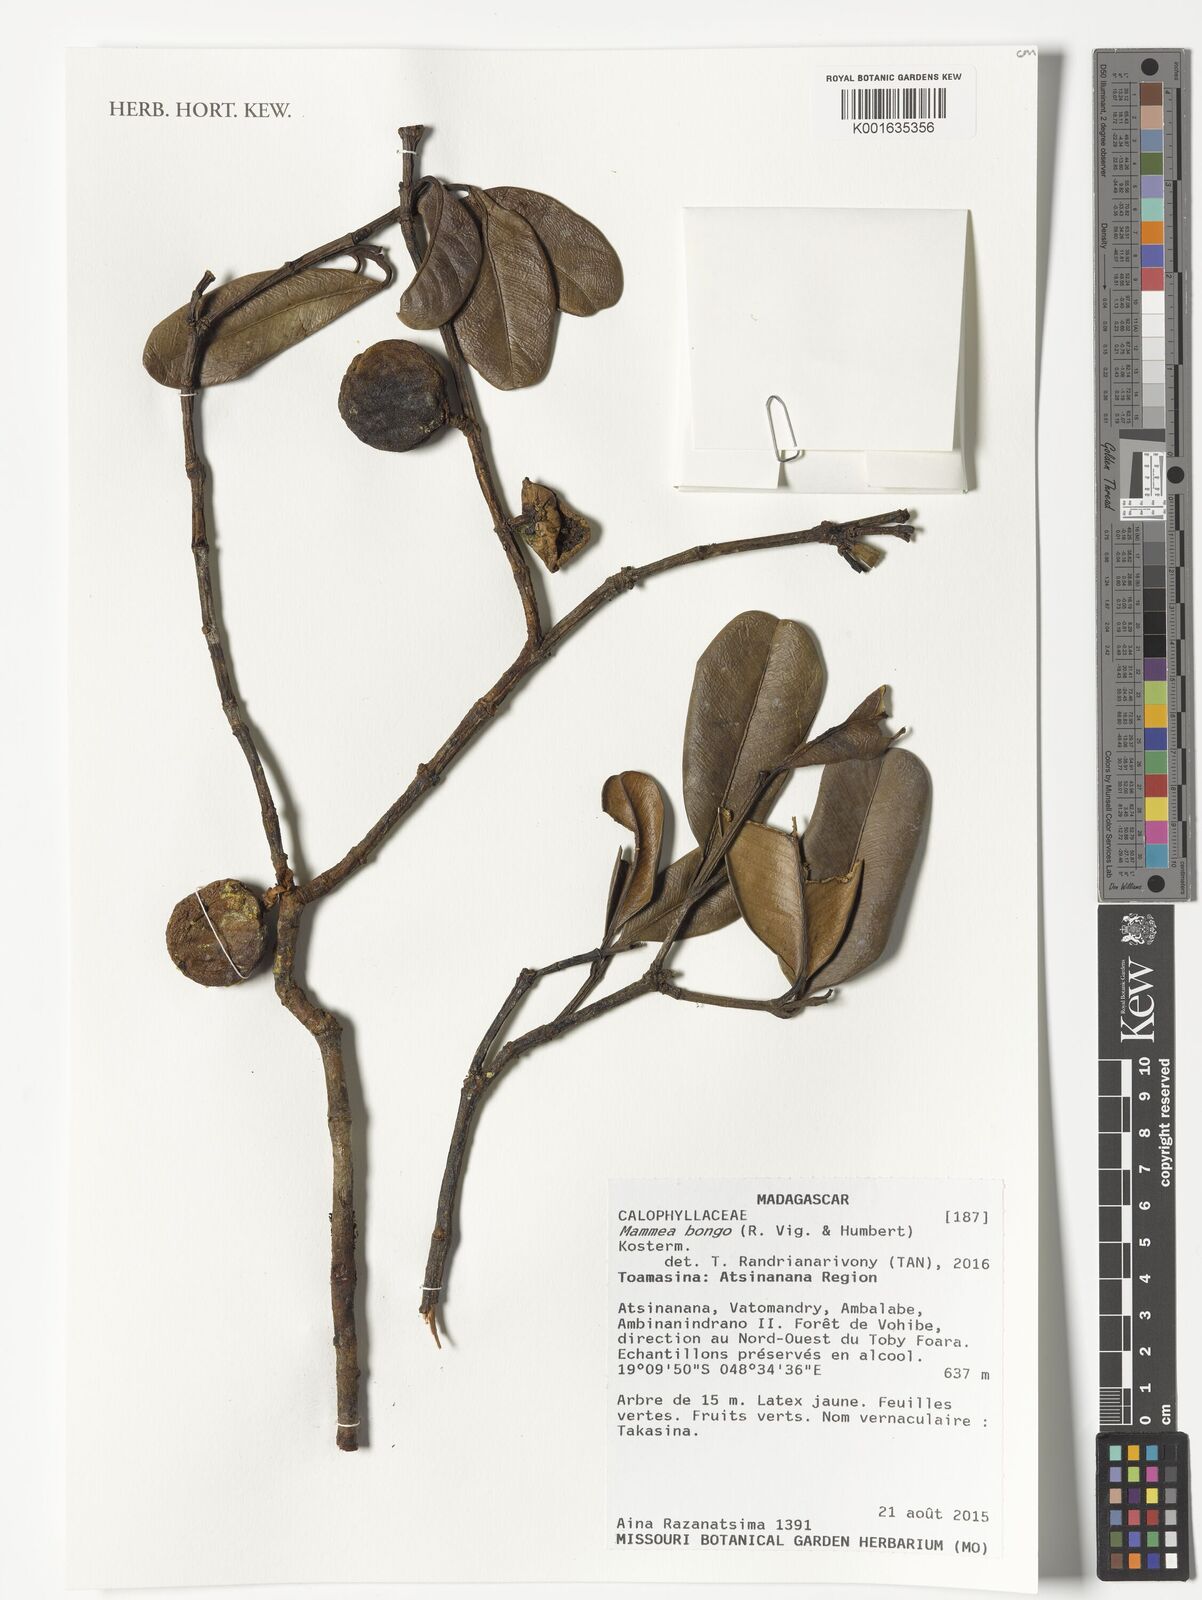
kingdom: Plantae
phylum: Tracheophyta
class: Magnoliopsida
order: Malpighiales
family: Calophyllaceae
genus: Mammea
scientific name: Mammea bongo
